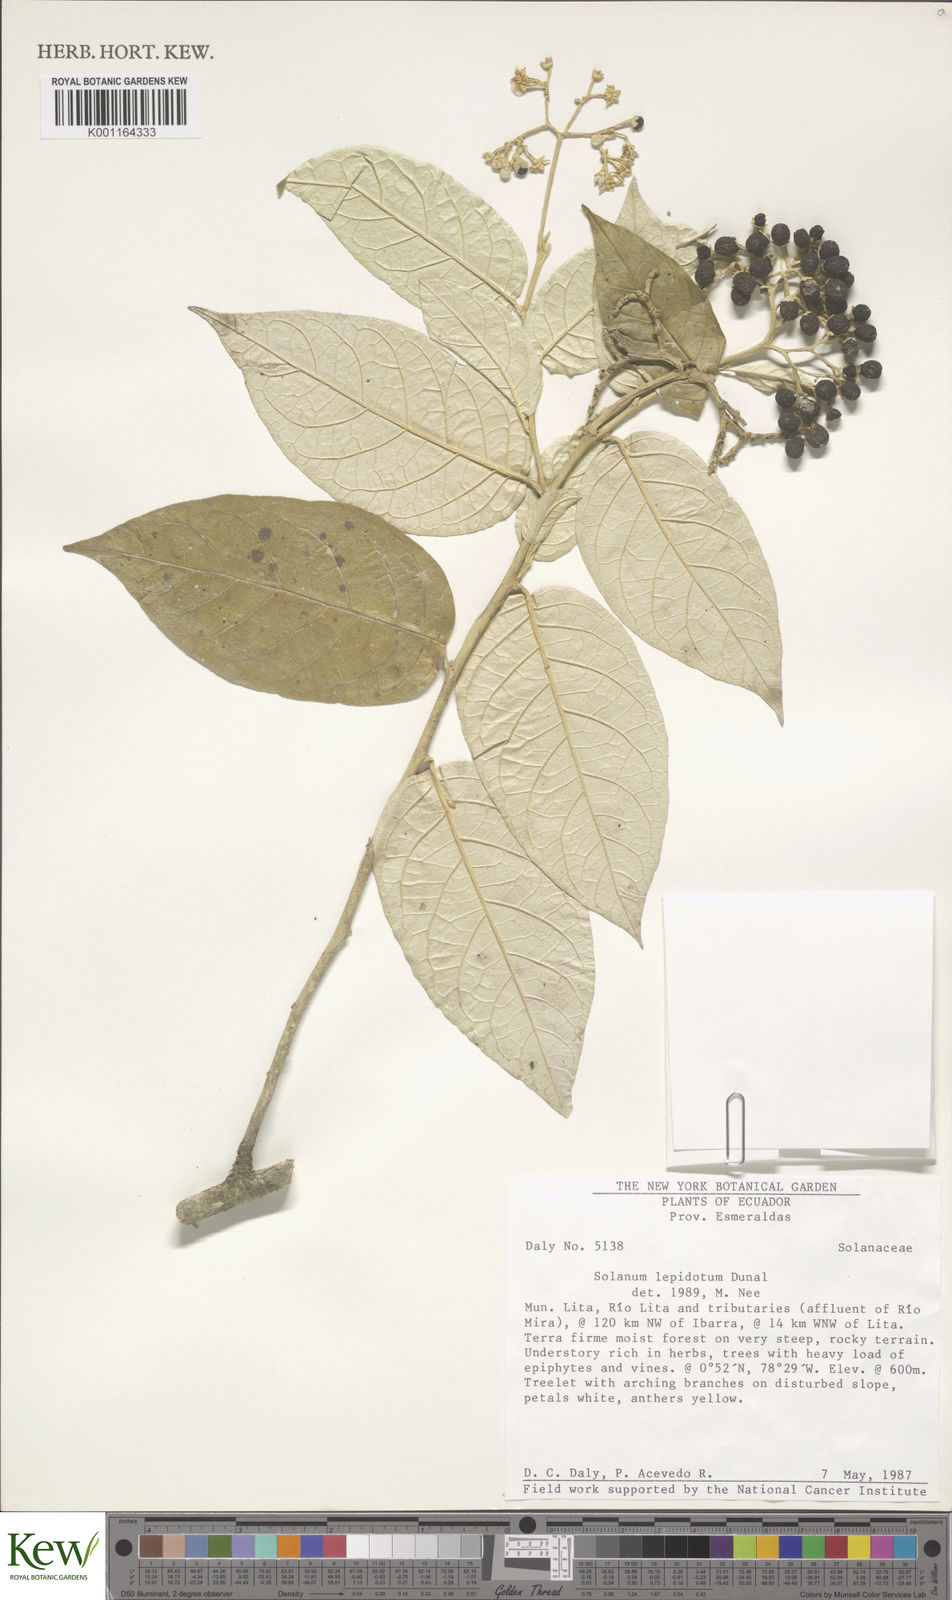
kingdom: Plantae
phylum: Tracheophyta
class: Magnoliopsida
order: Solanales
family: Solanaceae
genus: Solanum
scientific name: Solanum lepidotum
